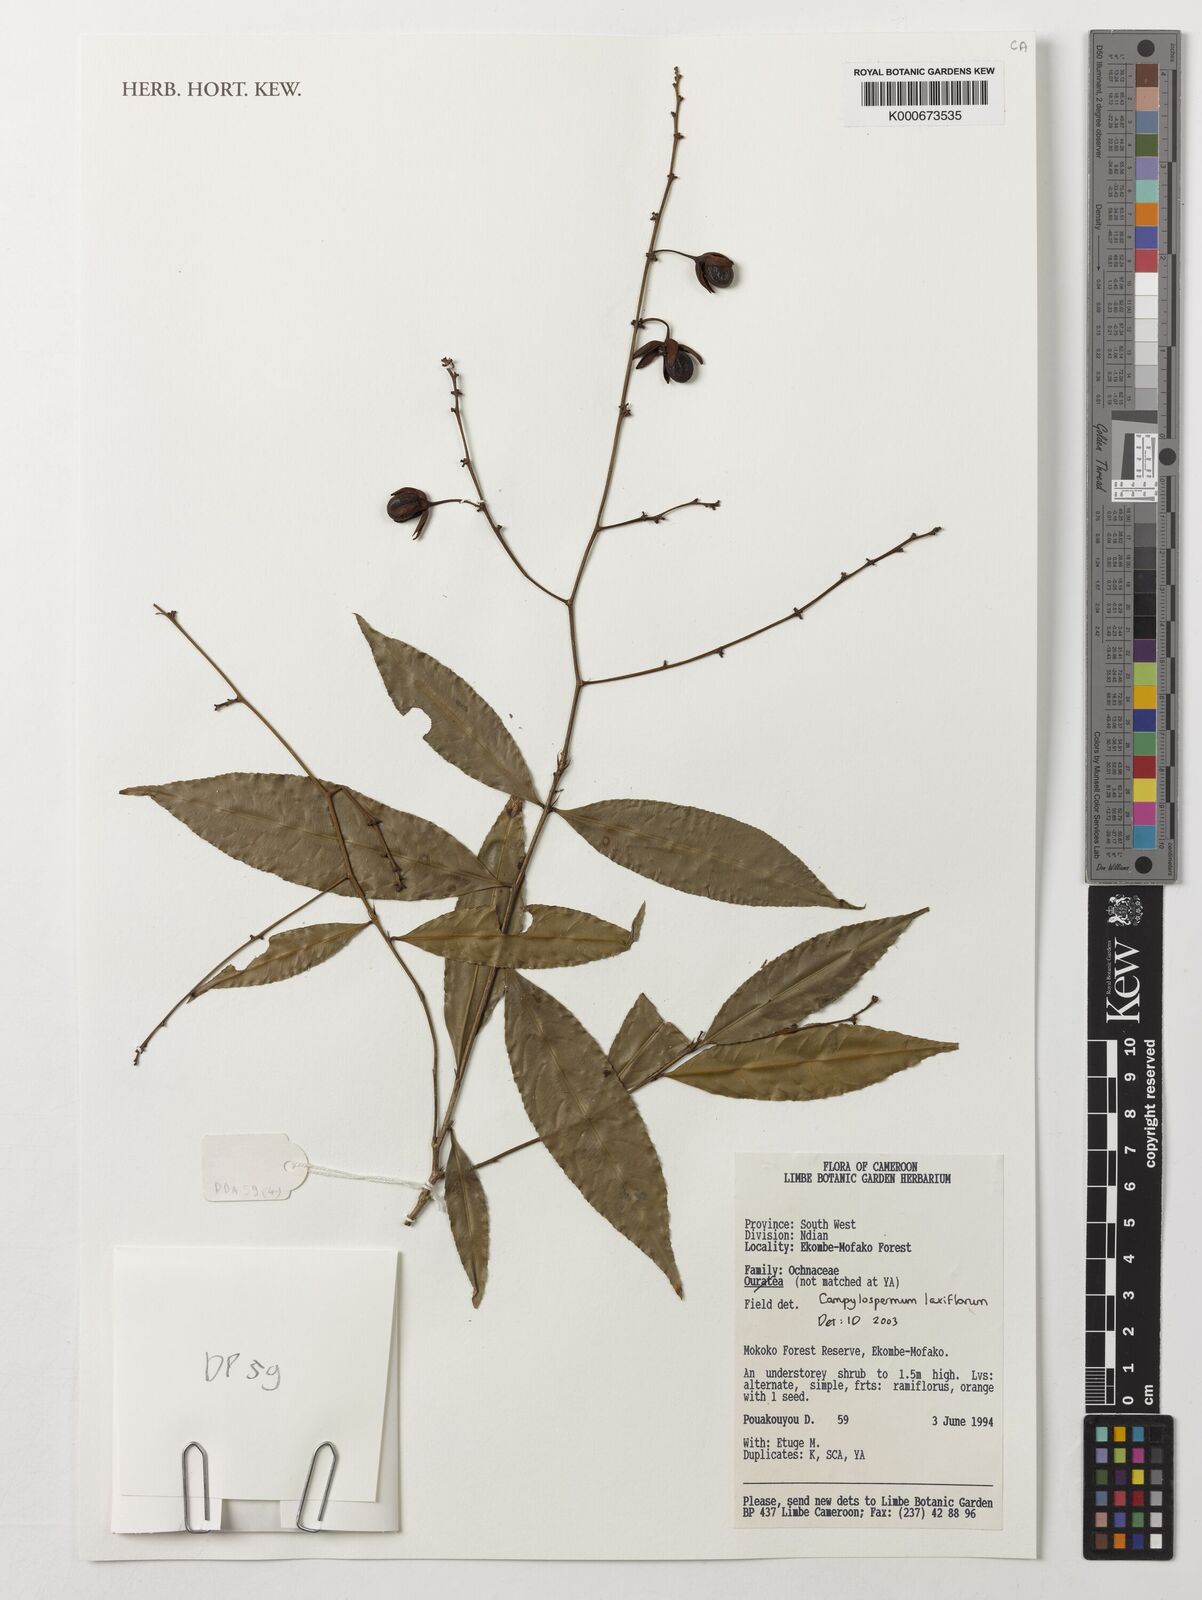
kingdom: Plantae
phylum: Tracheophyta
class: Magnoliopsida
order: Malpighiales
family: Ochnaceae
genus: Campylospermum
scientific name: Campylospermum laxiflorum
